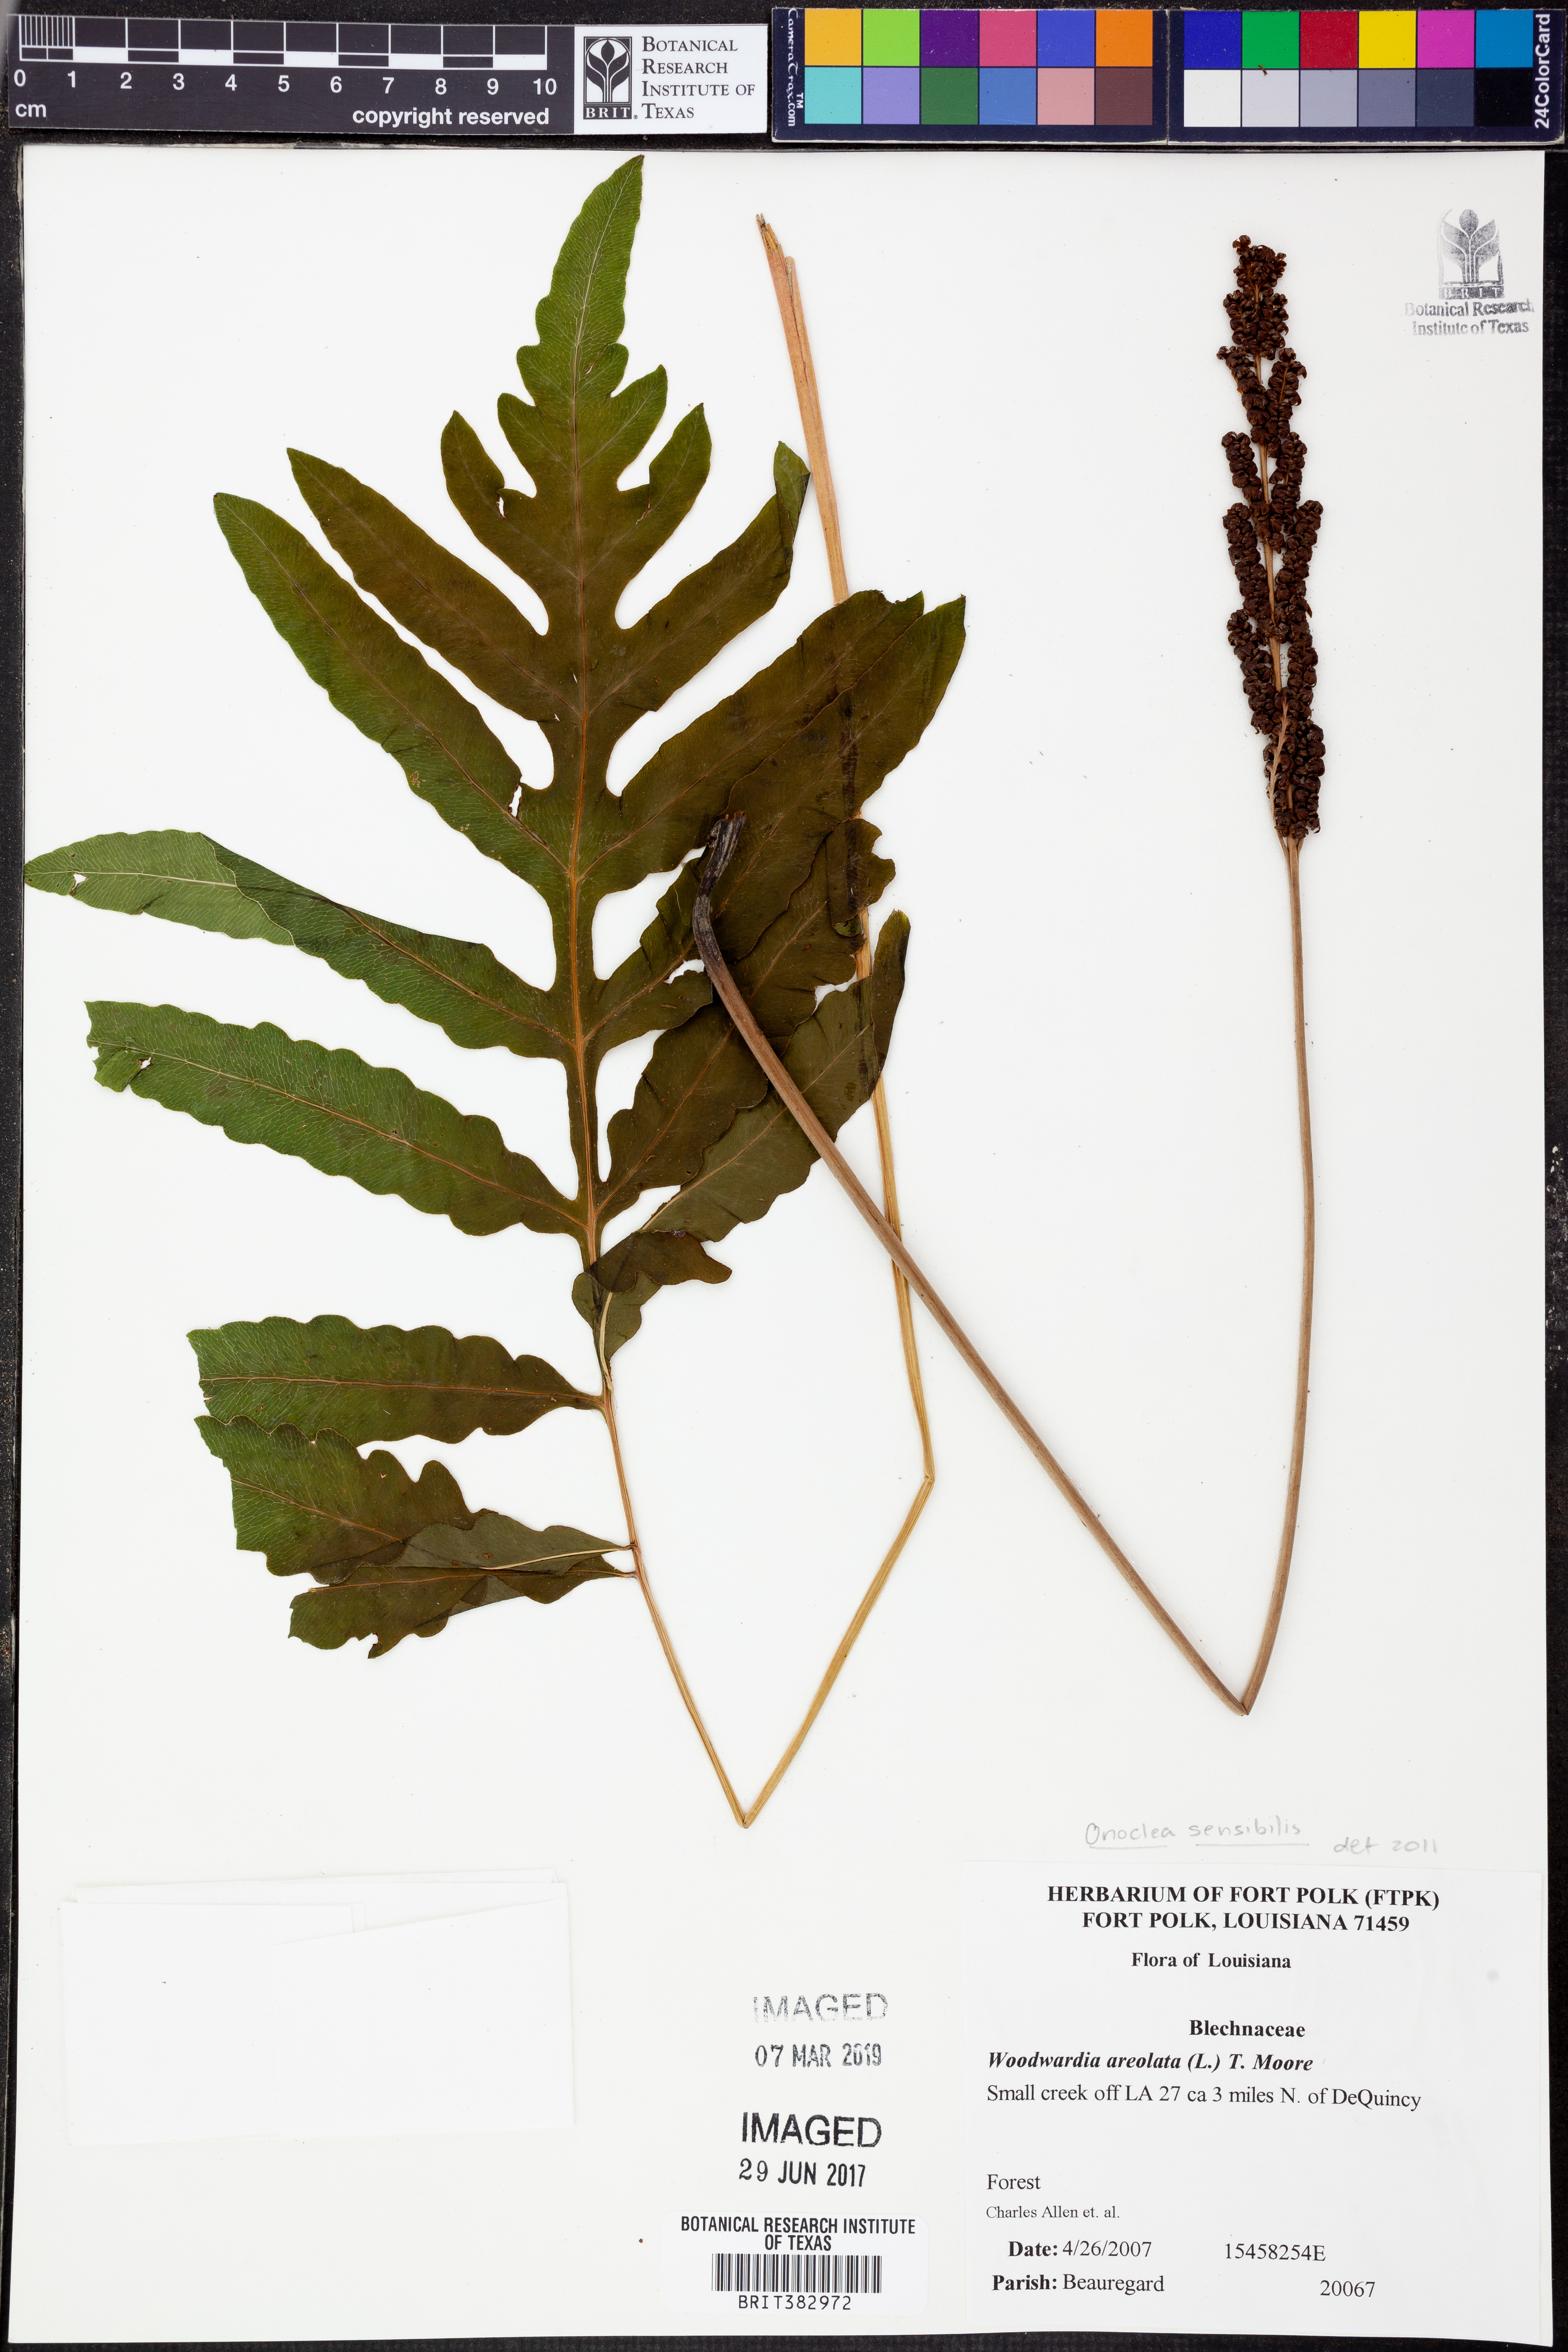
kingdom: Plantae
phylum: Tracheophyta
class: Polypodiopsida
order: Polypodiales
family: Onocleaceae
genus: Onoclea
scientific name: Onoclea sensibilis
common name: Sensitive fern
